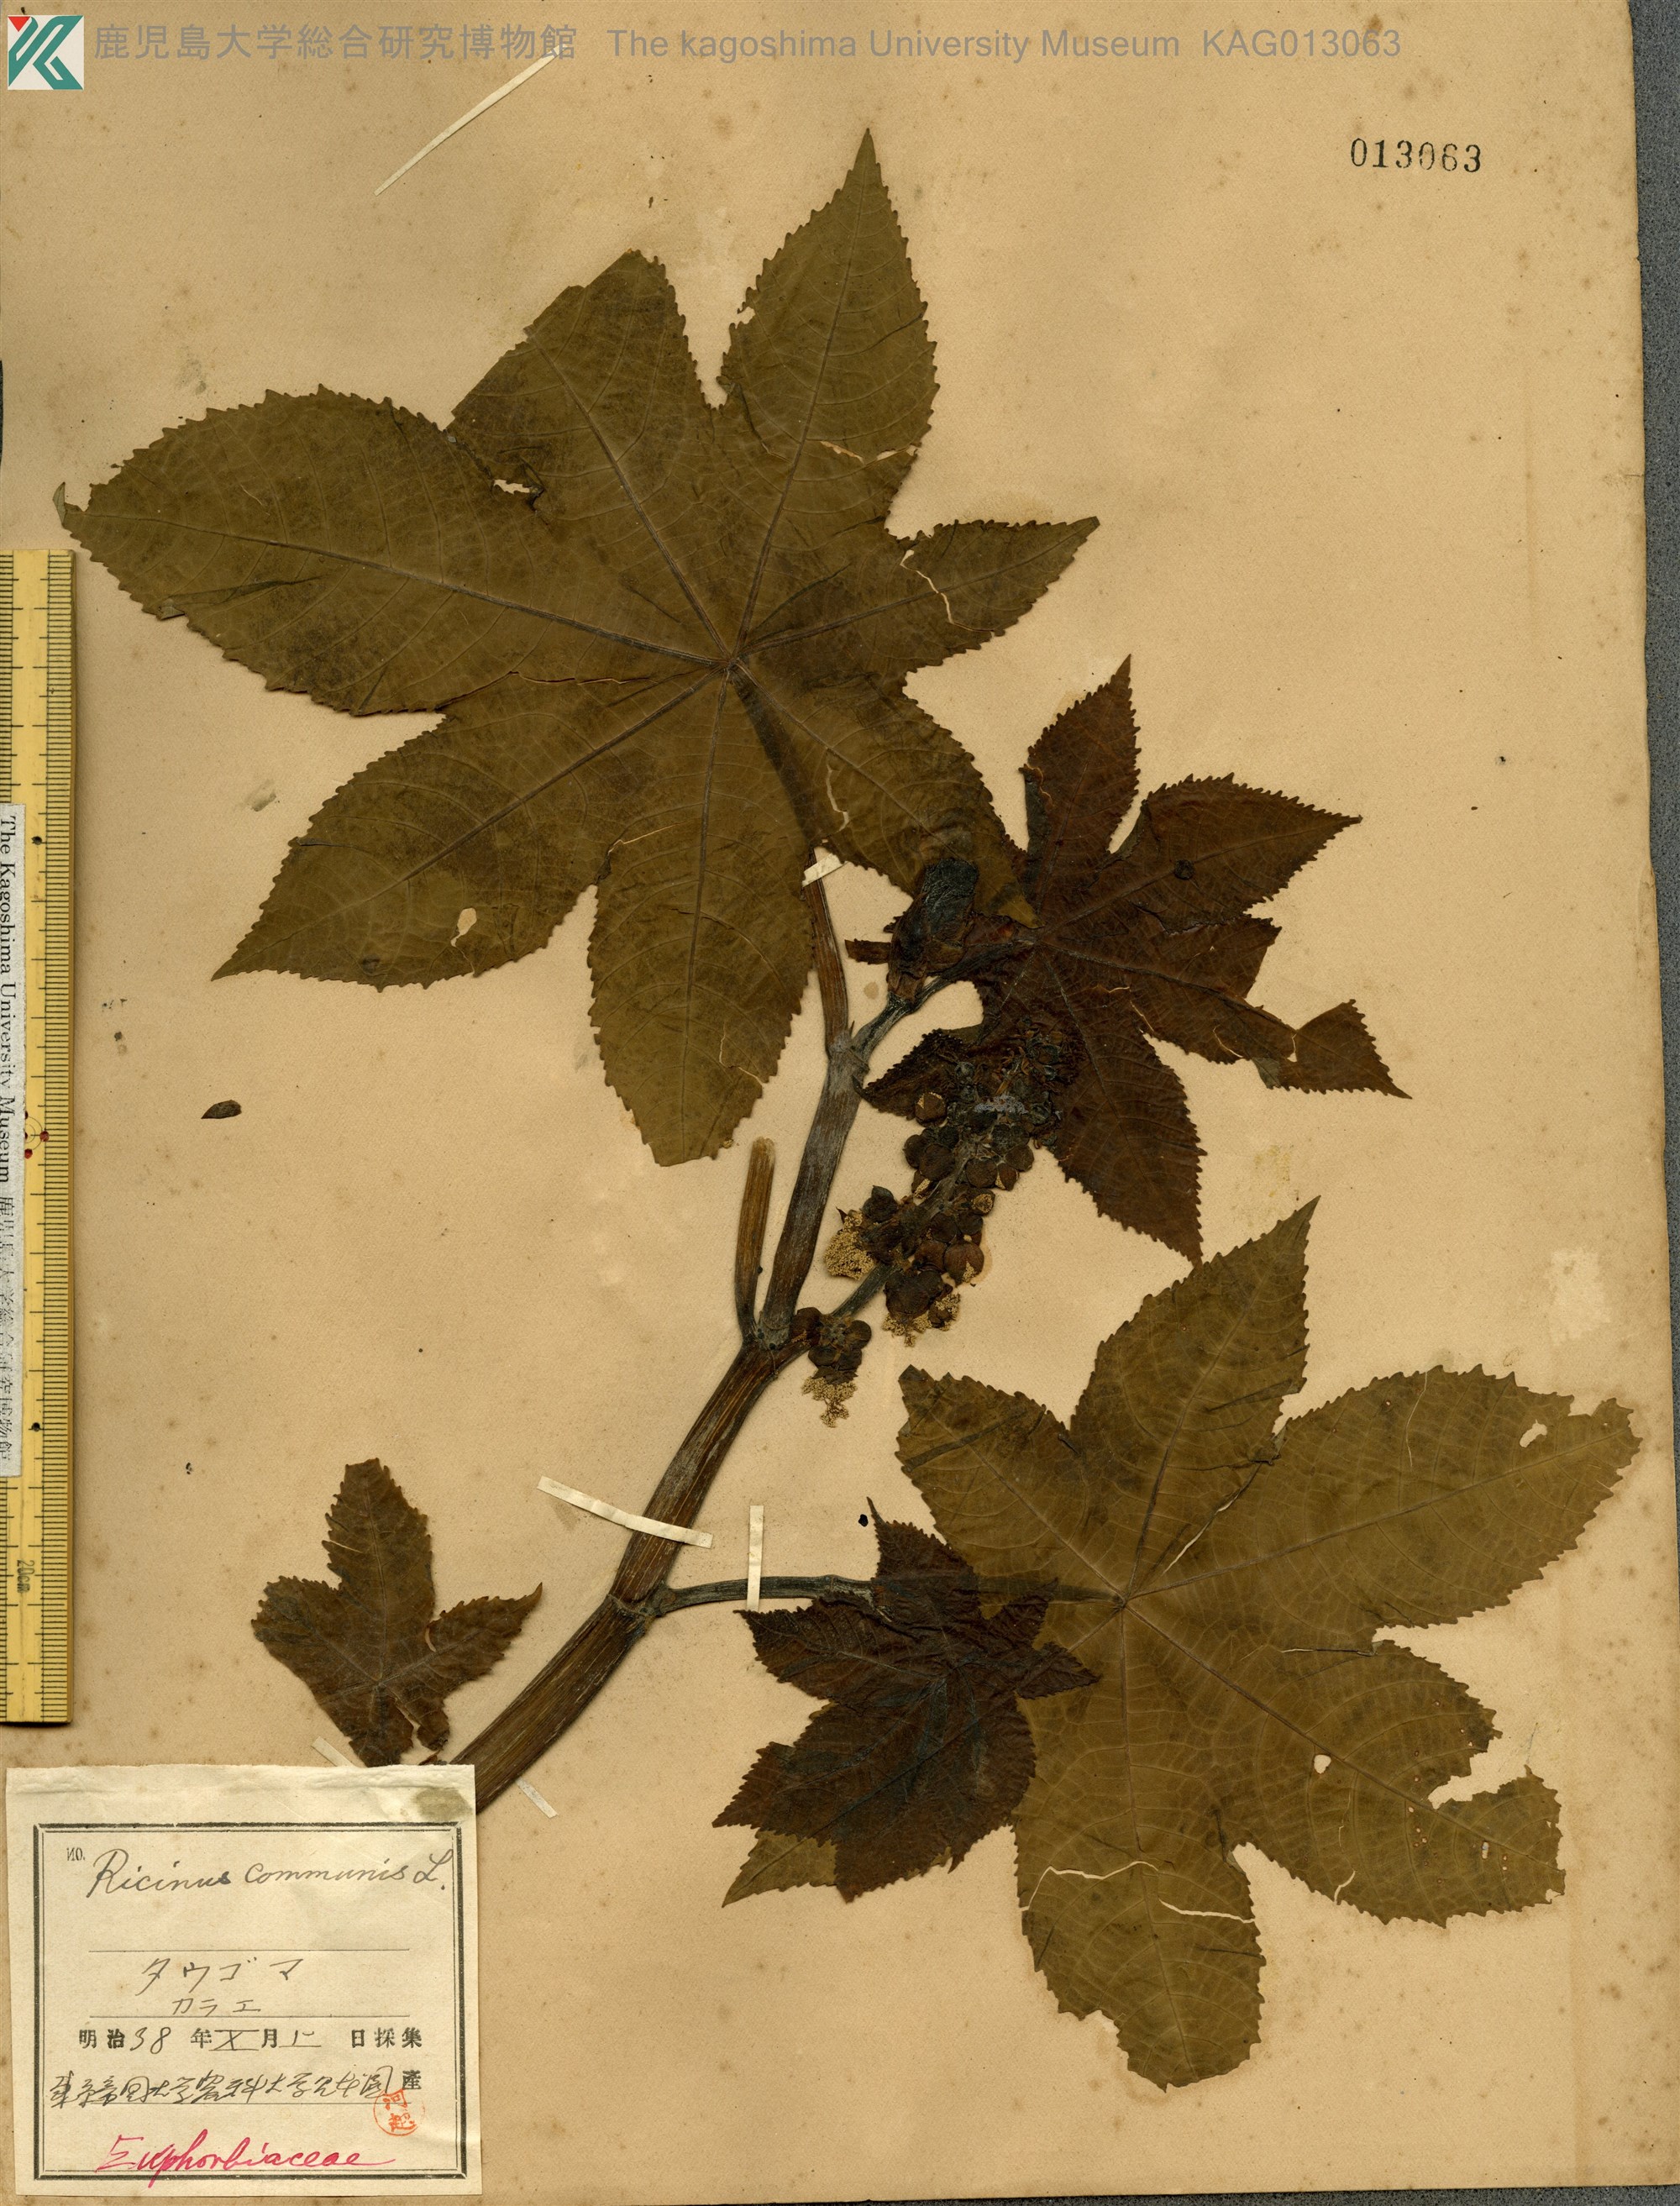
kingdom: Plantae
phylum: Tracheophyta
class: Magnoliopsida
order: Malpighiales
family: Euphorbiaceae
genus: Ricinus
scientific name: Ricinus communis
